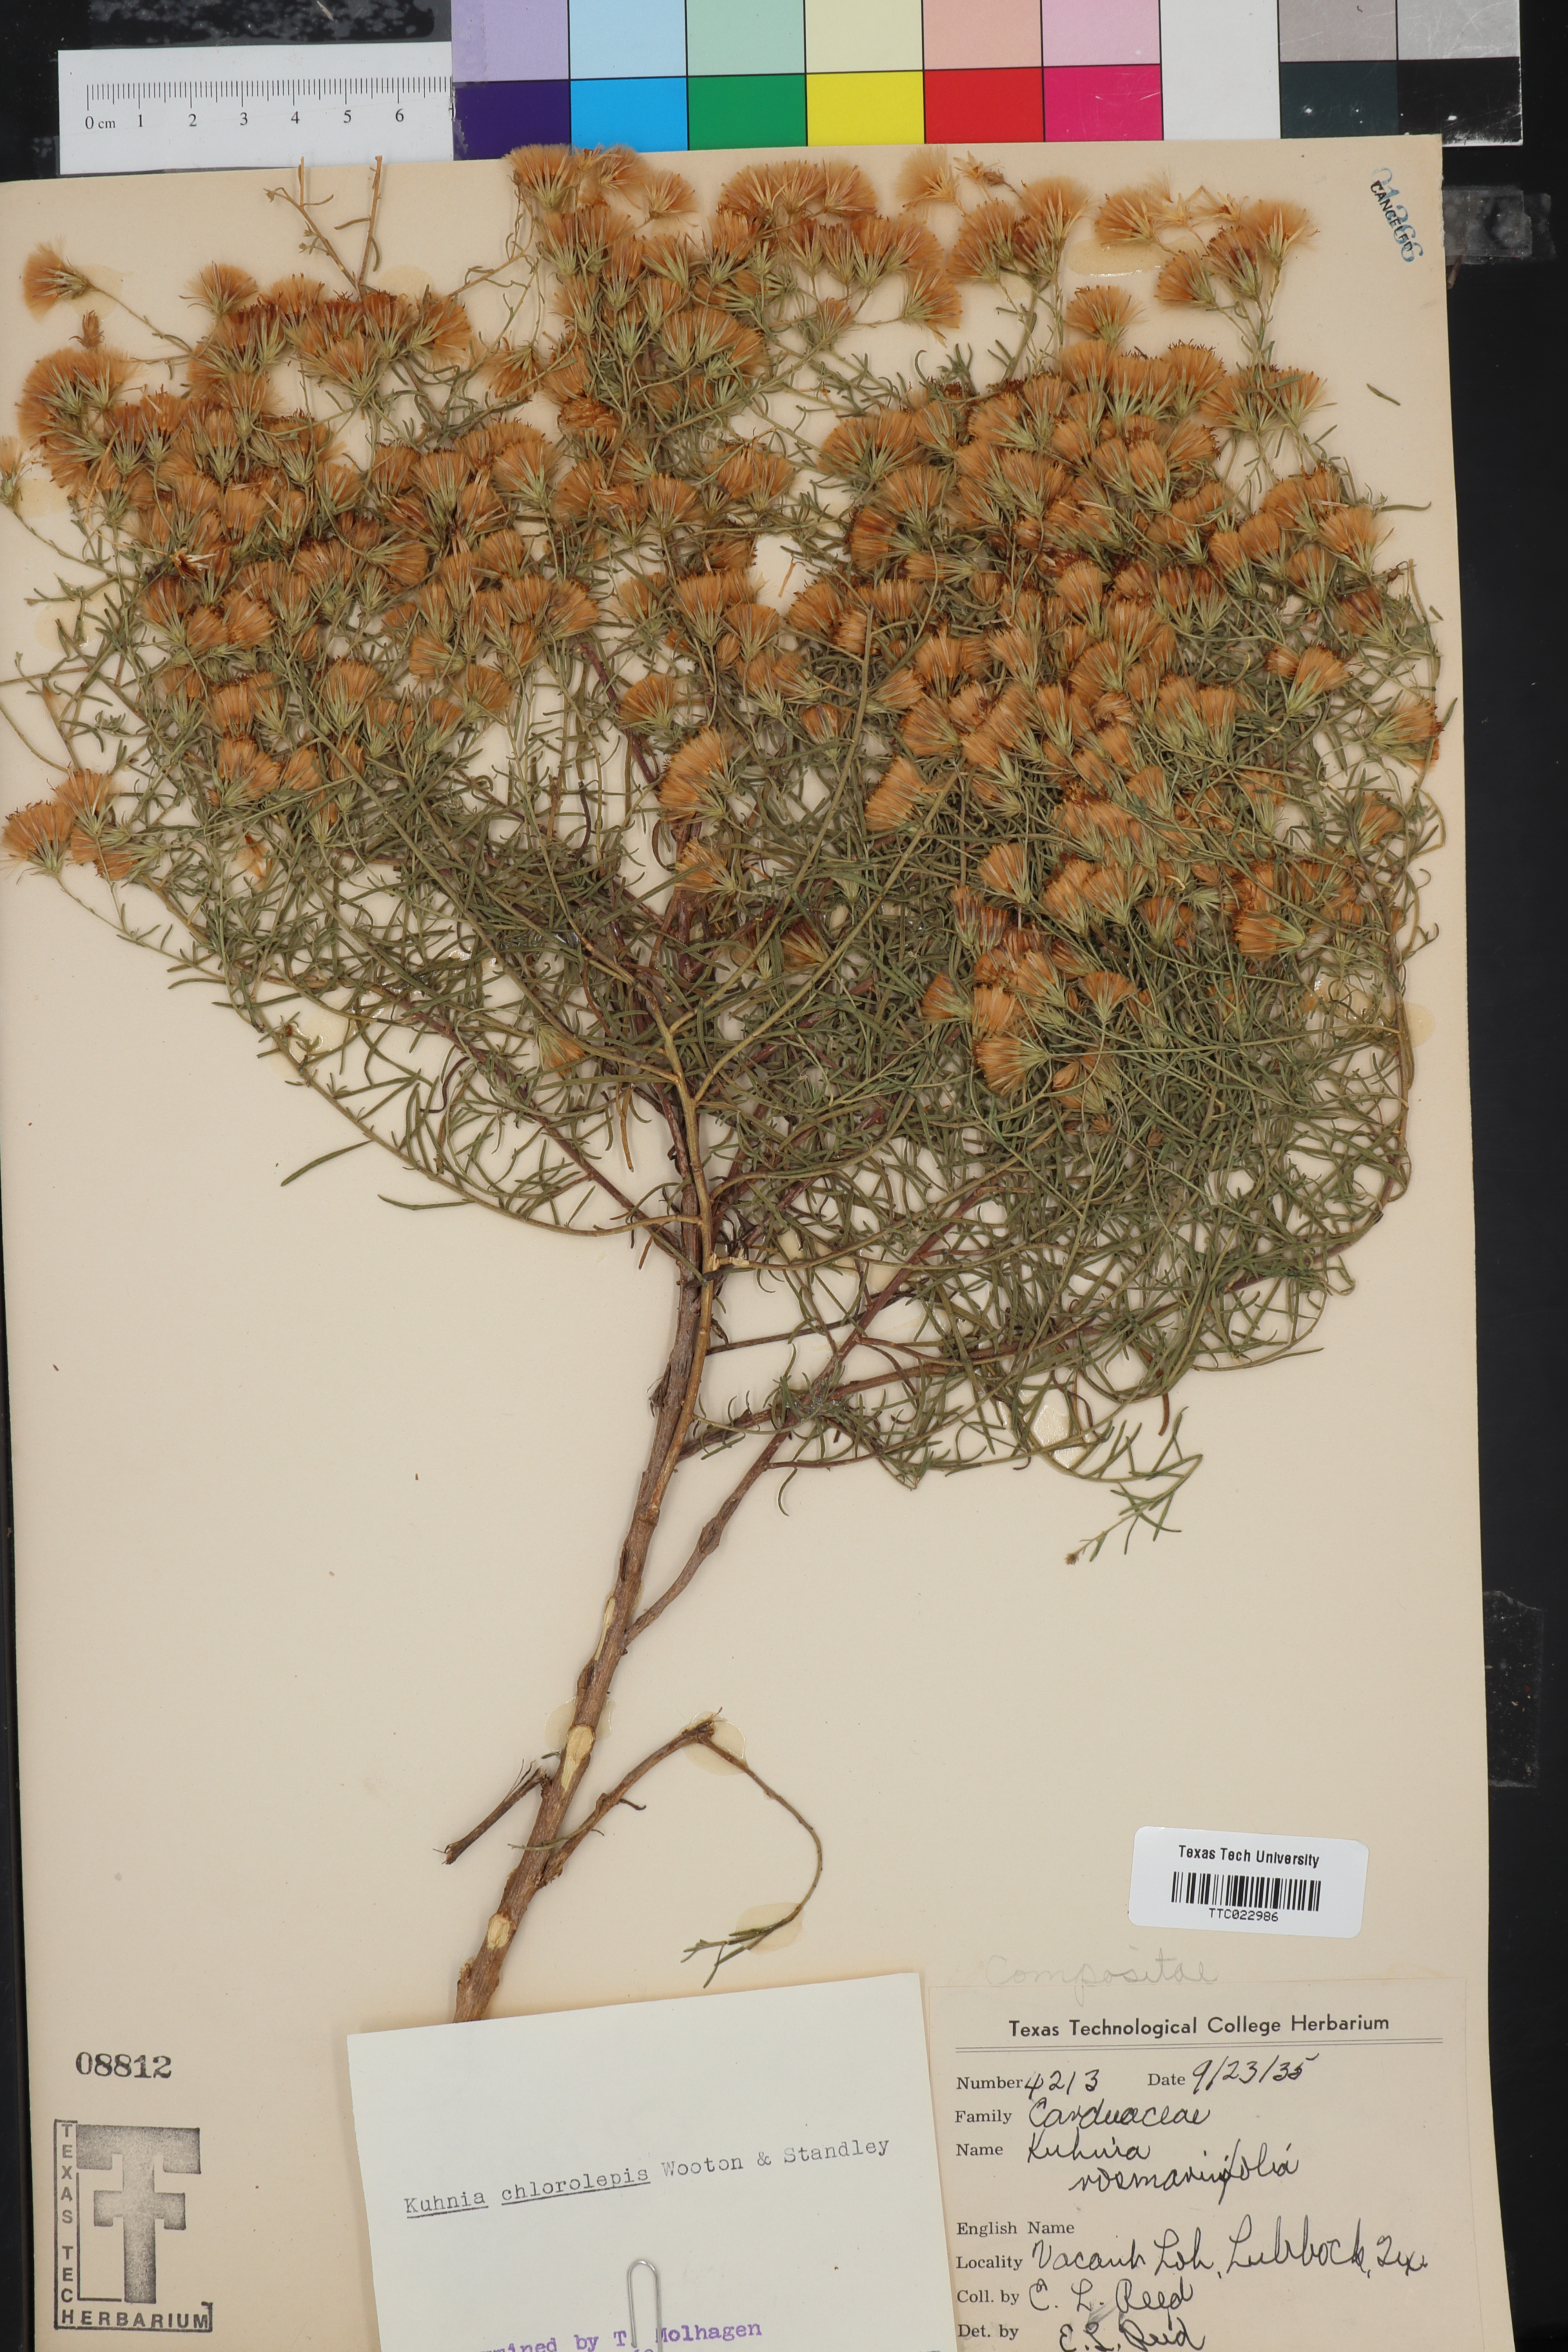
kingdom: Plantae
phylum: Tracheophyta
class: Magnoliopsida
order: Asterales
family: Asteraceae
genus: Brickellia
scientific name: Brickellia leptophylla
